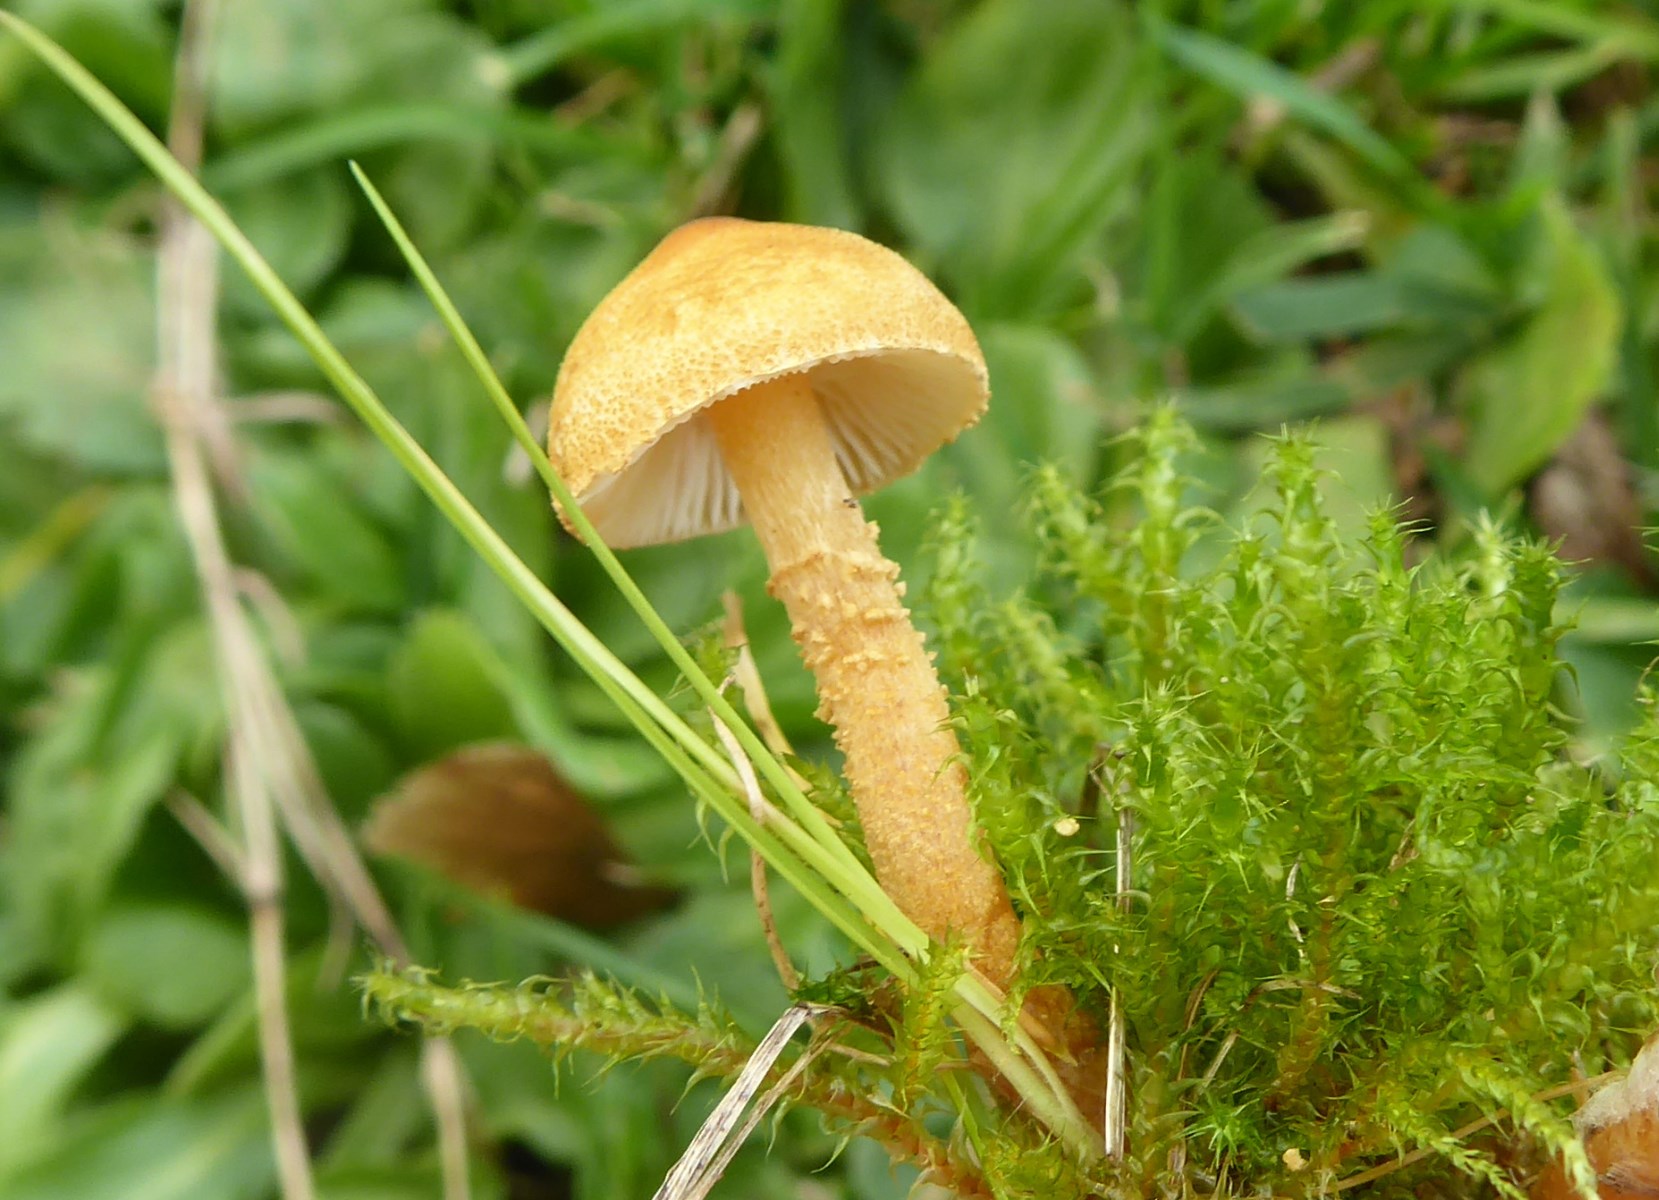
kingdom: Fungi
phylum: Basidiomycota
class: Agaricomycetes
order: Agaricales
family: Tricholomataceae
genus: Cystoderma
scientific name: Cystoderma amianthinum
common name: okkergul grynhat
